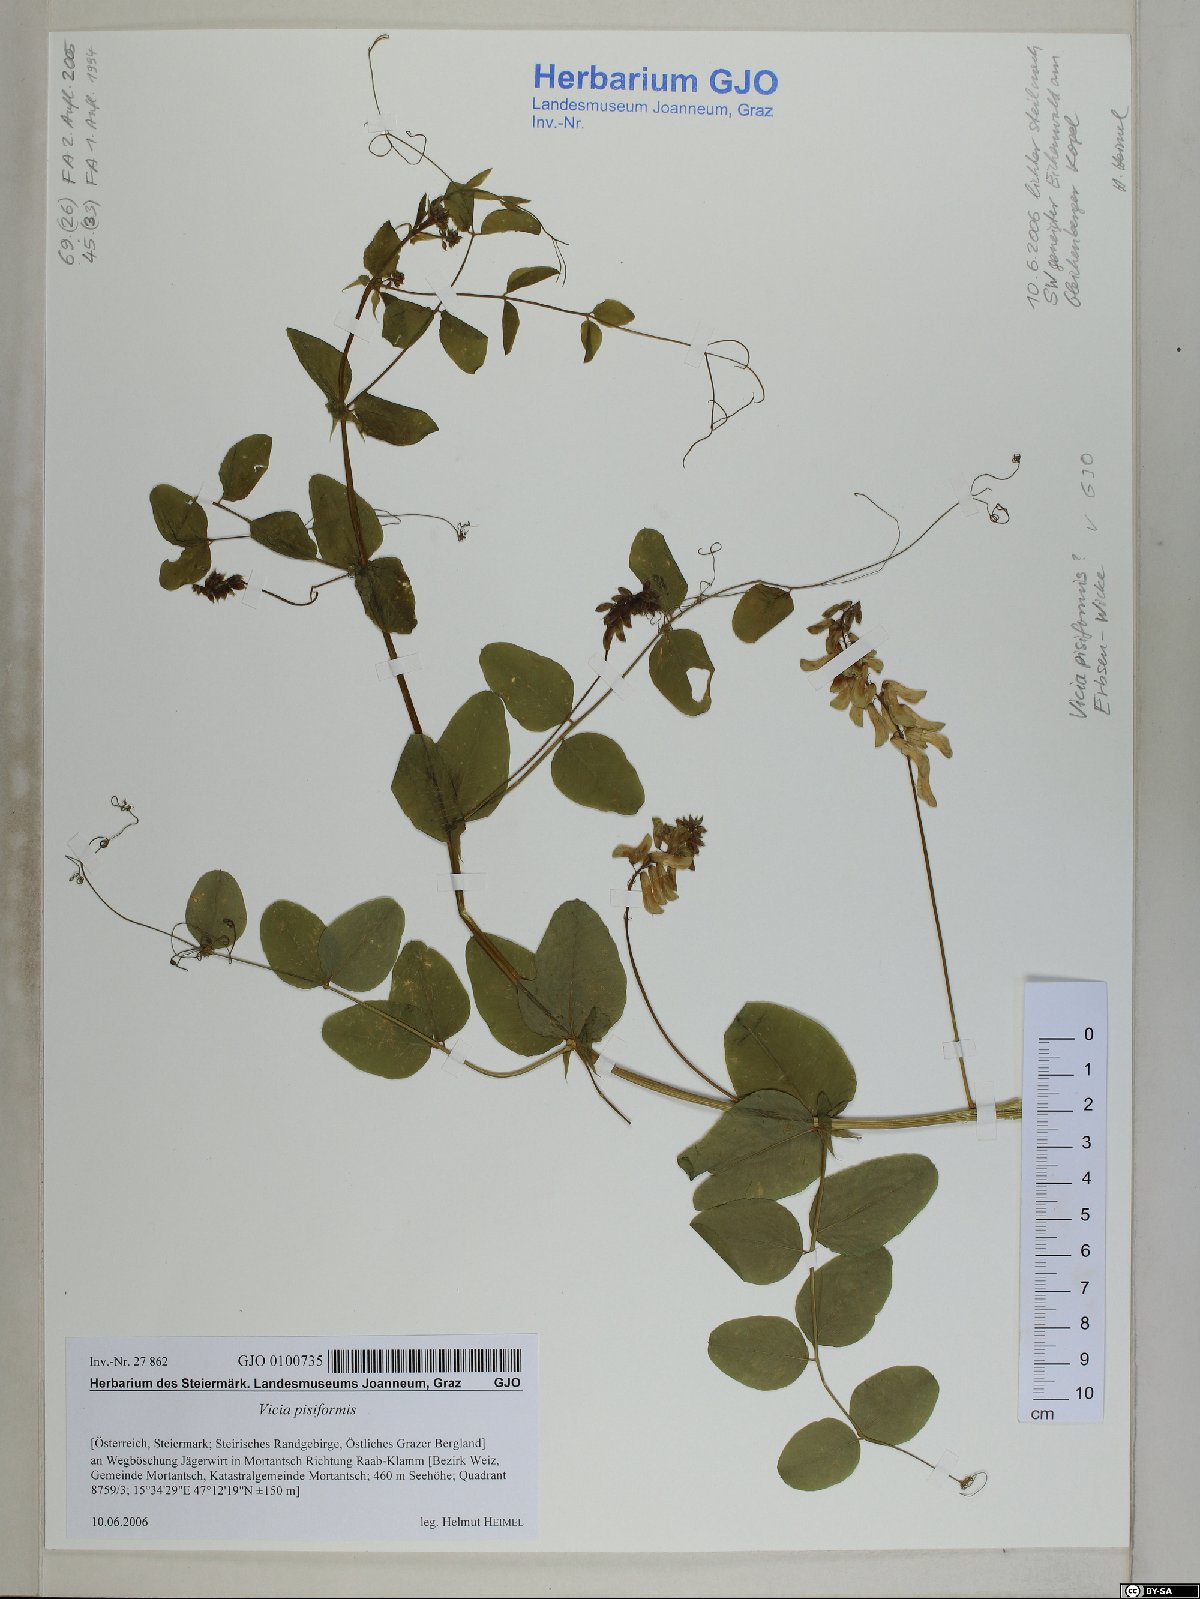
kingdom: Plantae
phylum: Tracheophyta
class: Magnoliopsida
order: Fabales
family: Fabaceae
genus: Vicia
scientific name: Vicia pisiformis
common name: Pale-flower vetch
